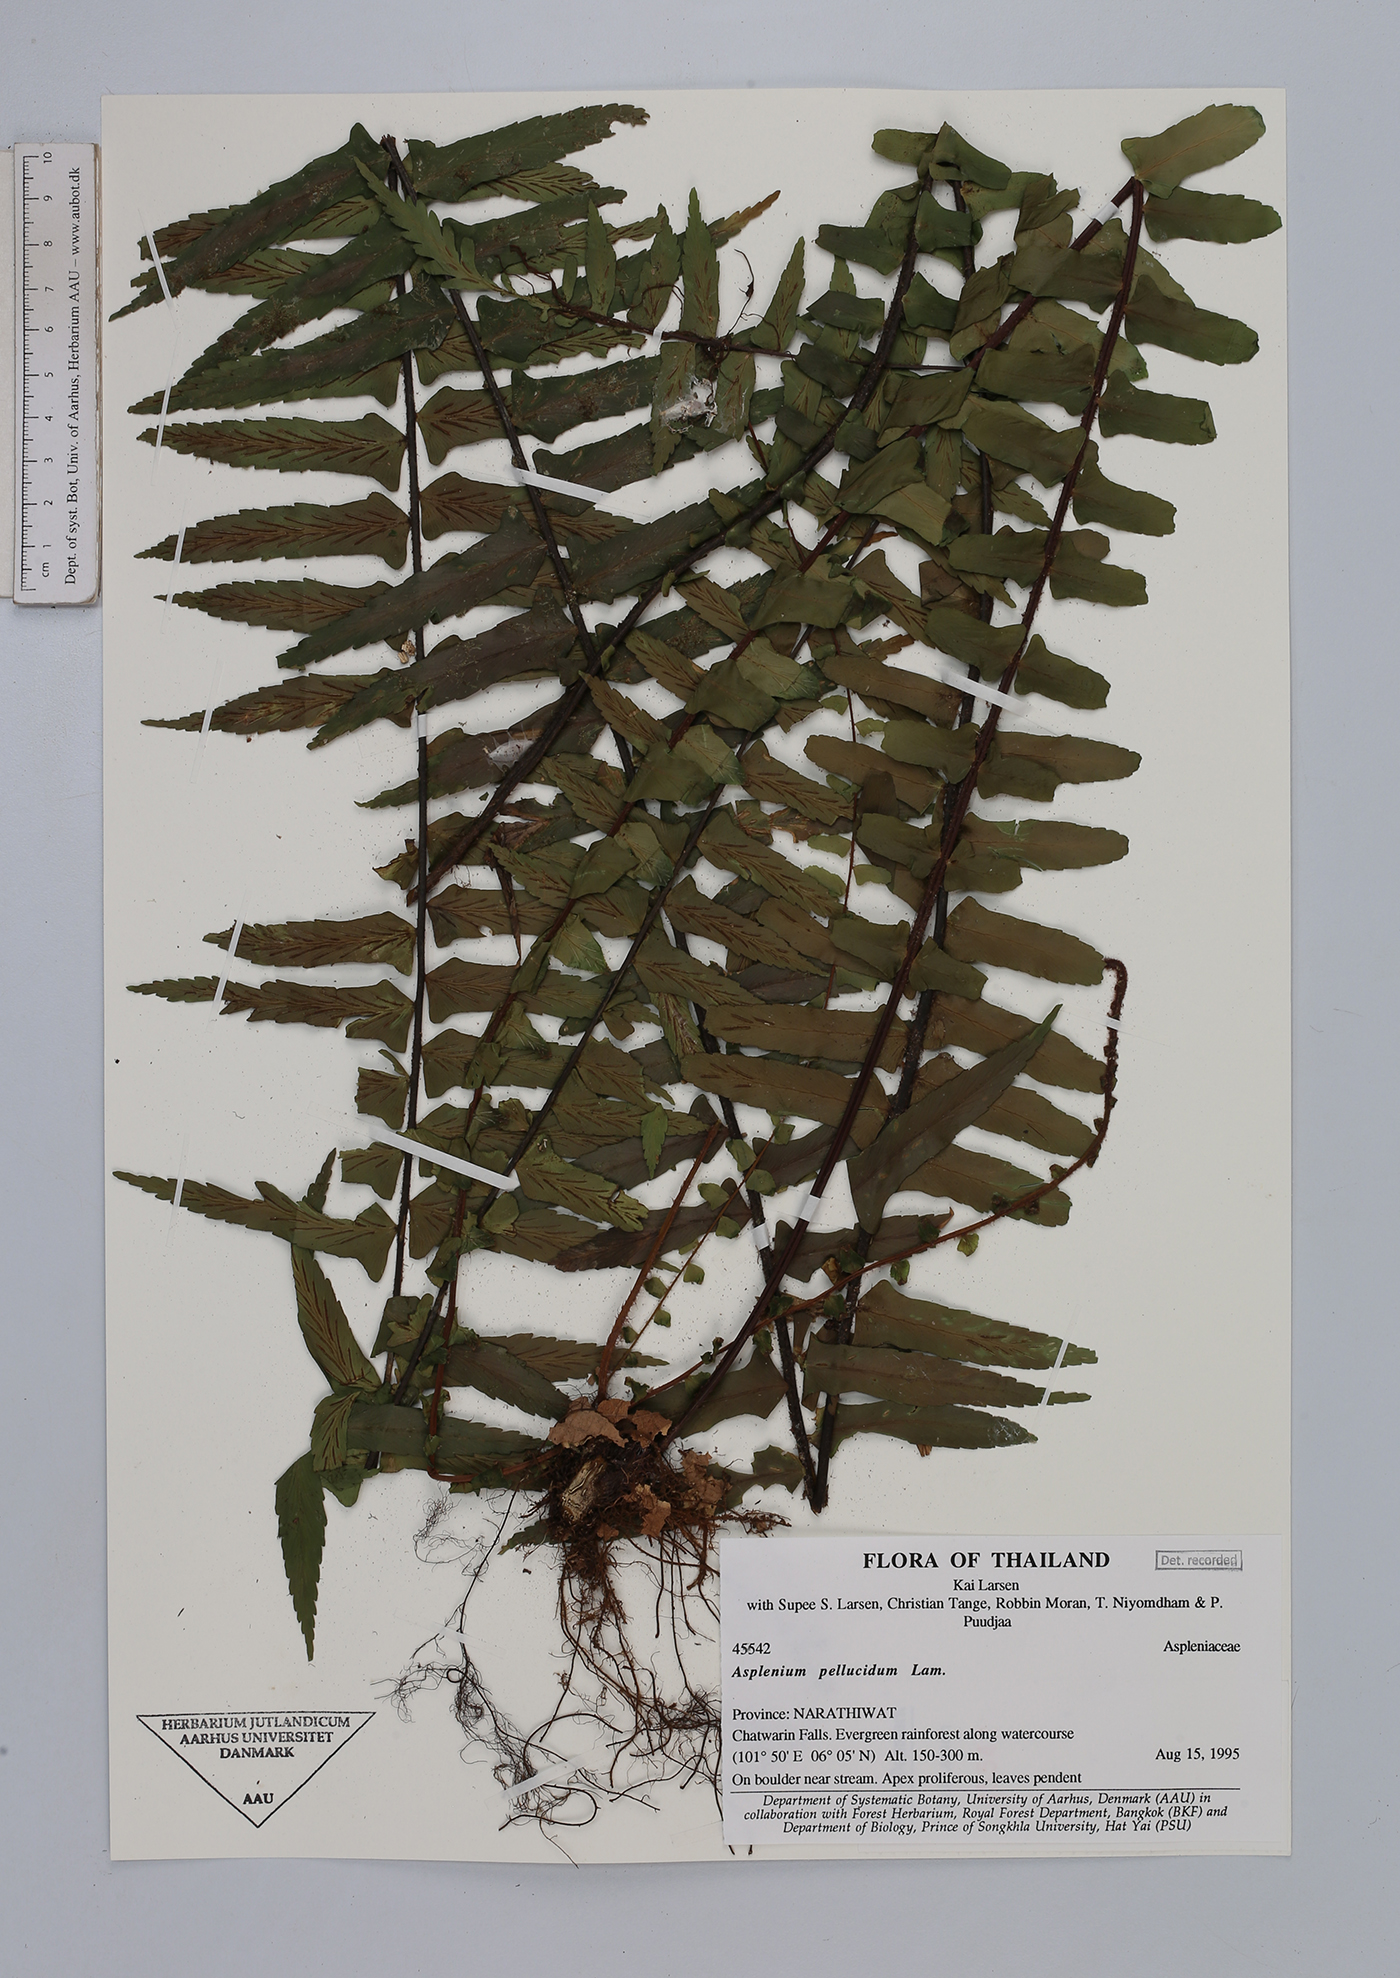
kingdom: Plantae
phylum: Tracheophyta
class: Polypodiopsida
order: Polypodiales
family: Aspleniaceae
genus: Asplenium
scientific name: Asplenium pellucidum
